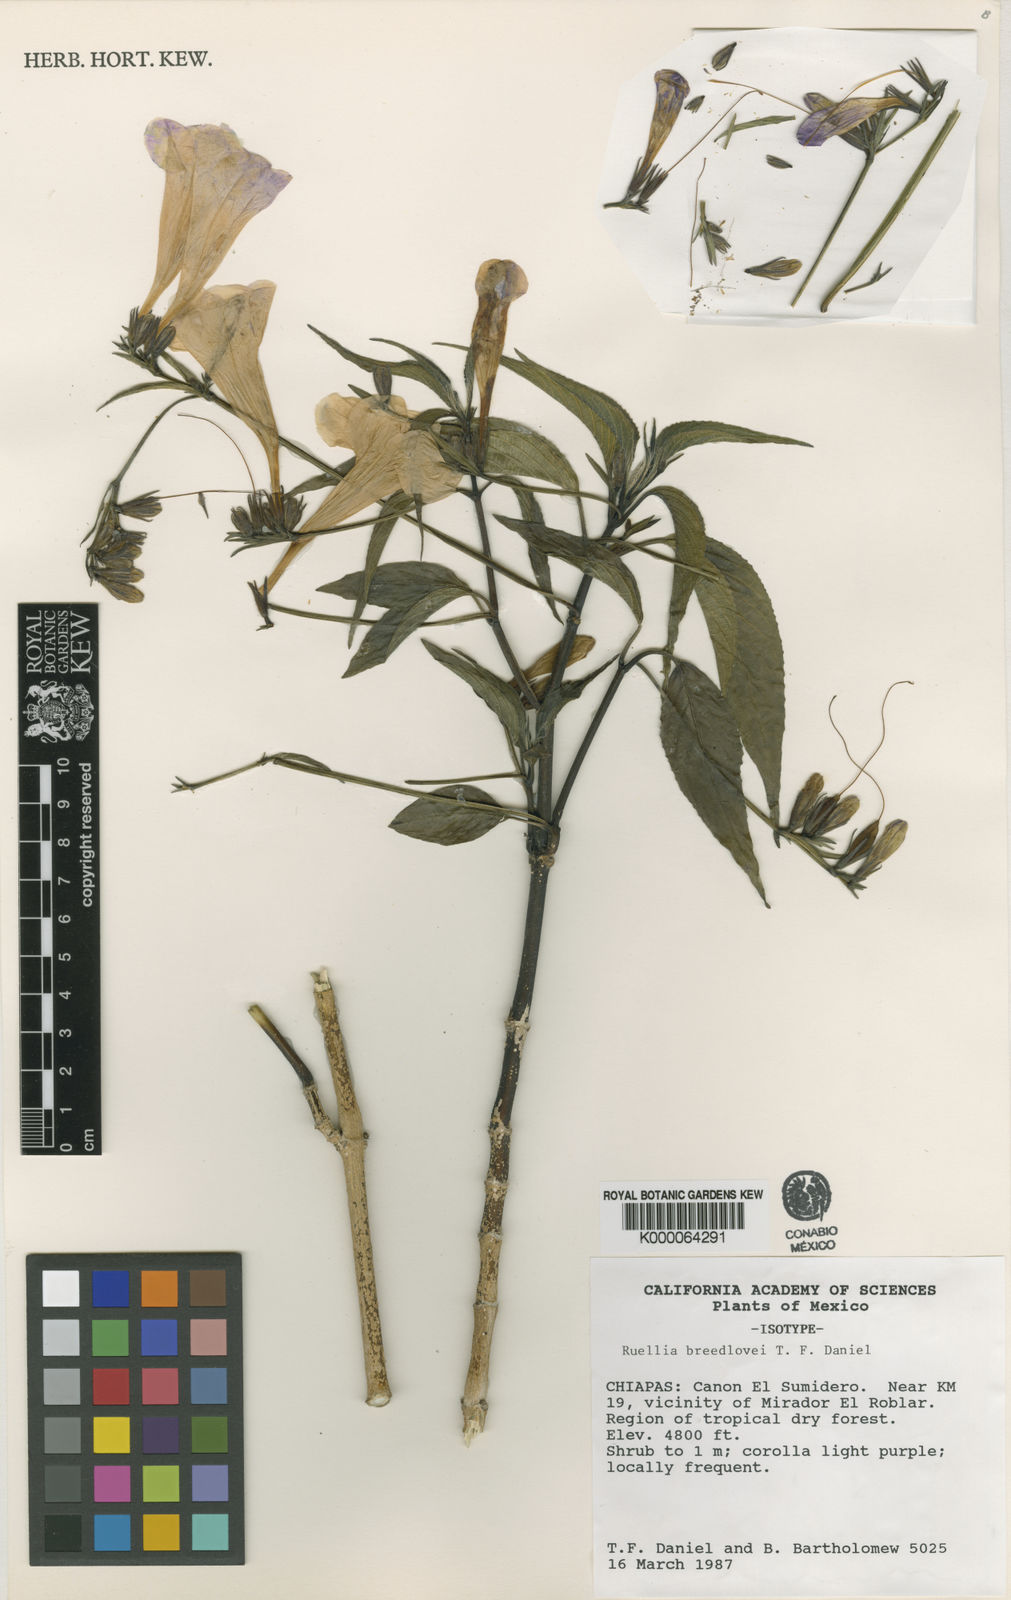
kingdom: Plantae
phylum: Tracheophyta
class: Magnoliopsida
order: Lamiales
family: Acanthaceae
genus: Ruellia
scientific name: Ruellia breedlovei
